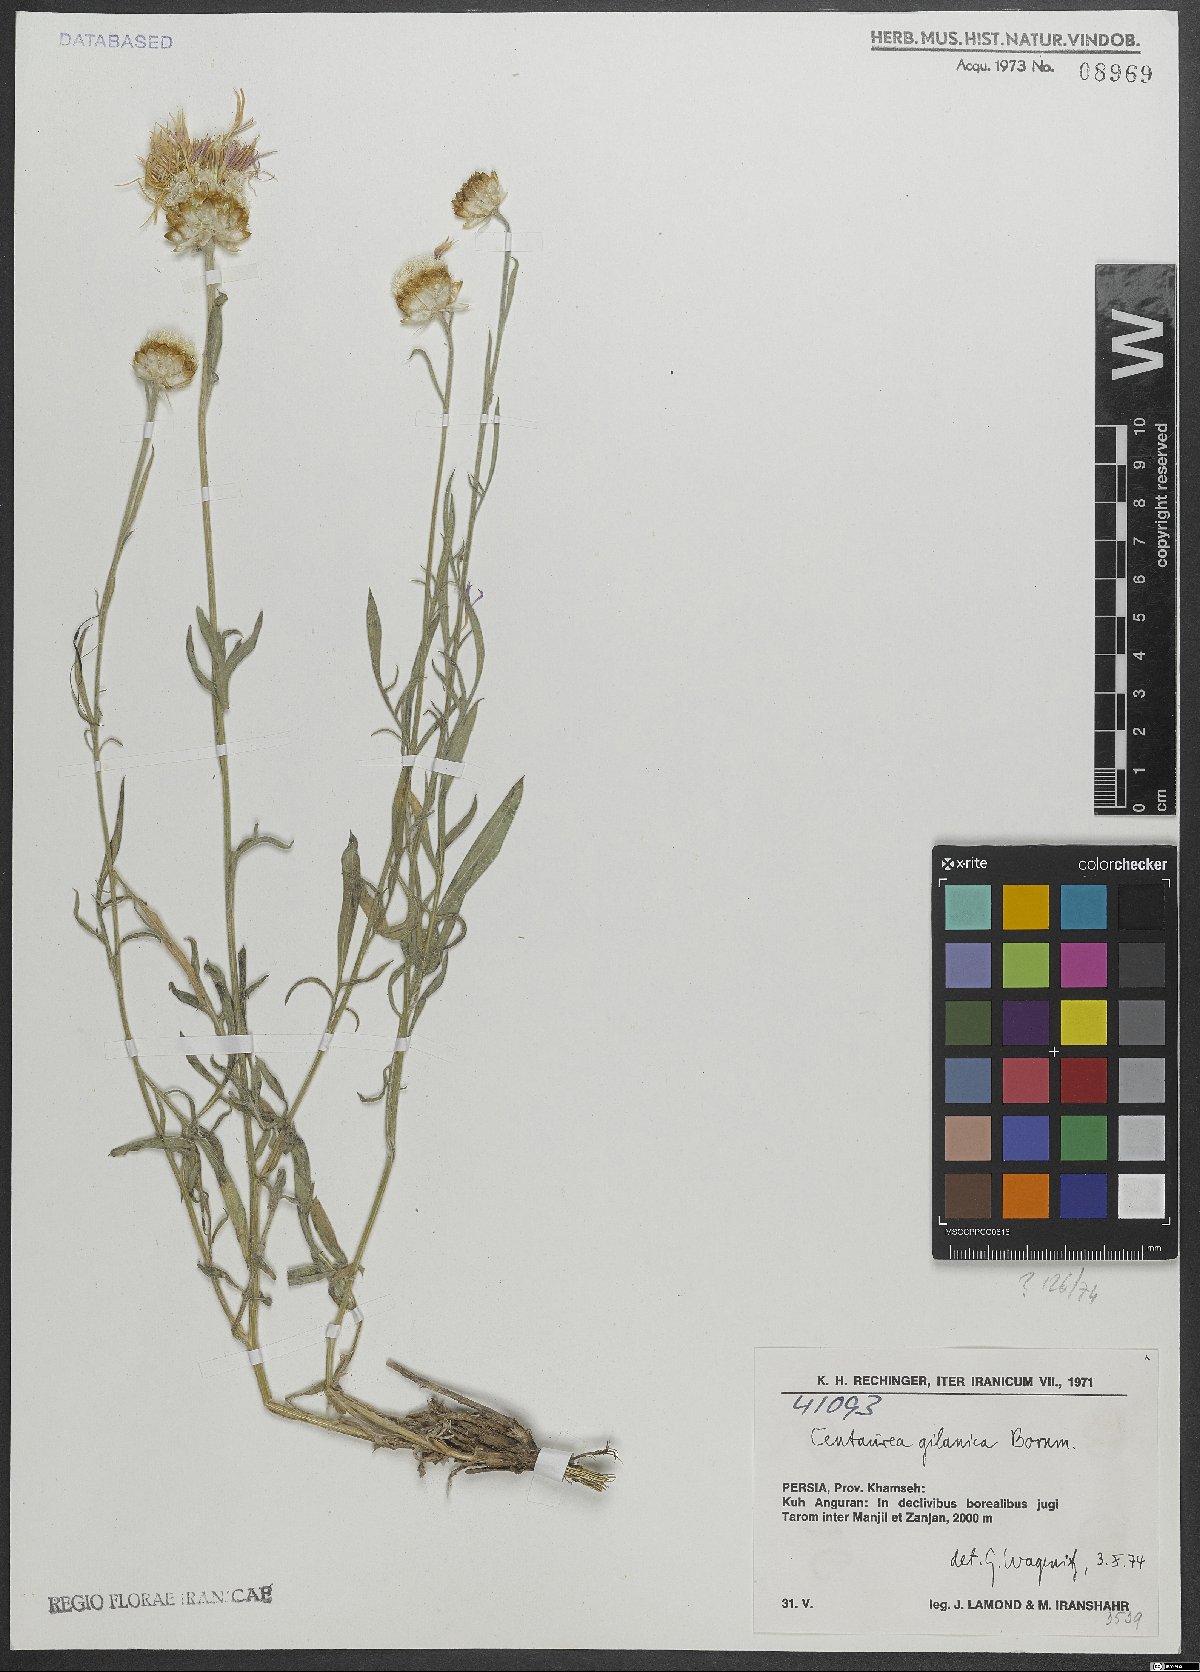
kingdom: Plantae
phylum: Tracheophyta
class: Magnoliopsida
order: Asterales
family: Asteraceae
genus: Psephellus
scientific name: Psephellus gilanicus
